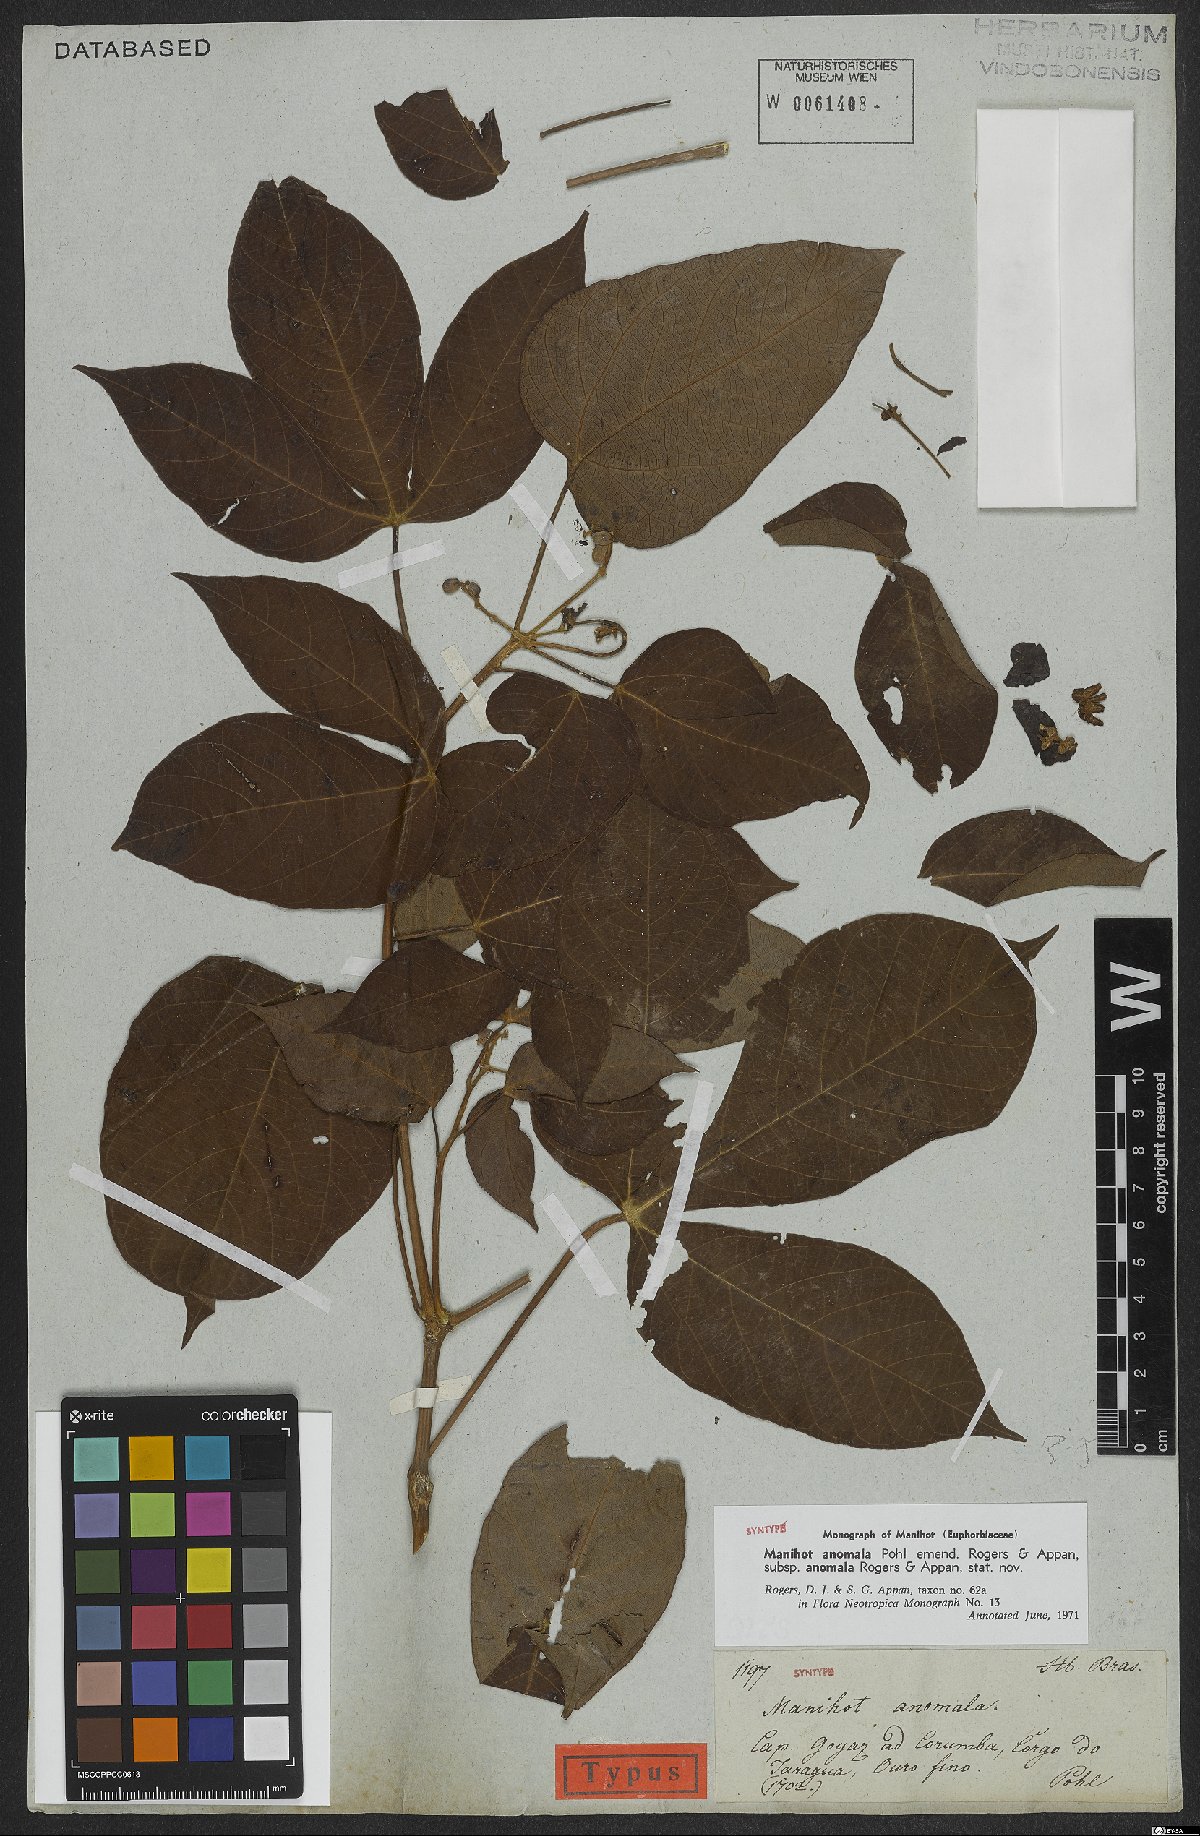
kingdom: Plantae
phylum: Tracheophyta
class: Magnoliopsida
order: Malpighiales
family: Euphorbiaceae
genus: Manihot
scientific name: Manihot anomala
